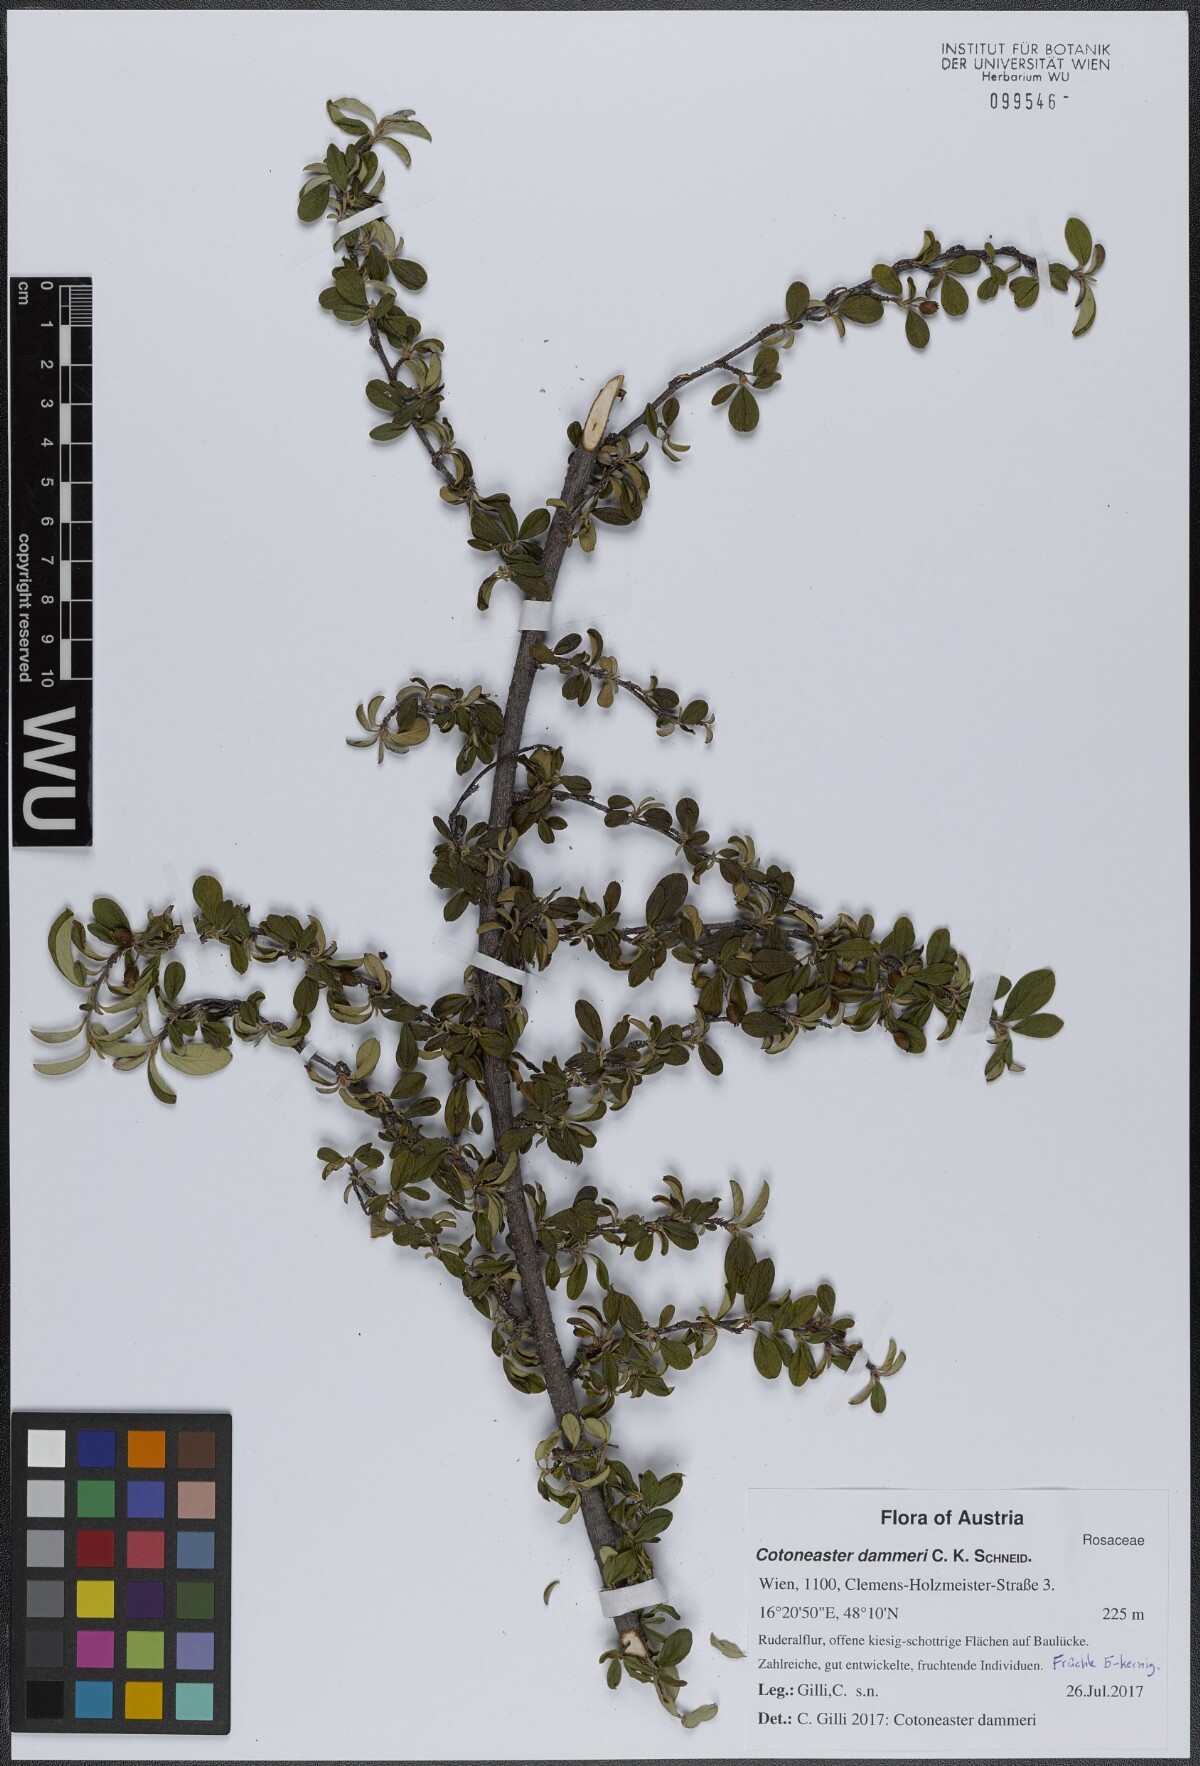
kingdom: Plantae
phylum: Tracheophyta
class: Magnoliopsida
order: Rosales
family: Rosaceae
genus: Cotoneaster
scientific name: Cotoneaster dammeri
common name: Bearberry cotoneaster
